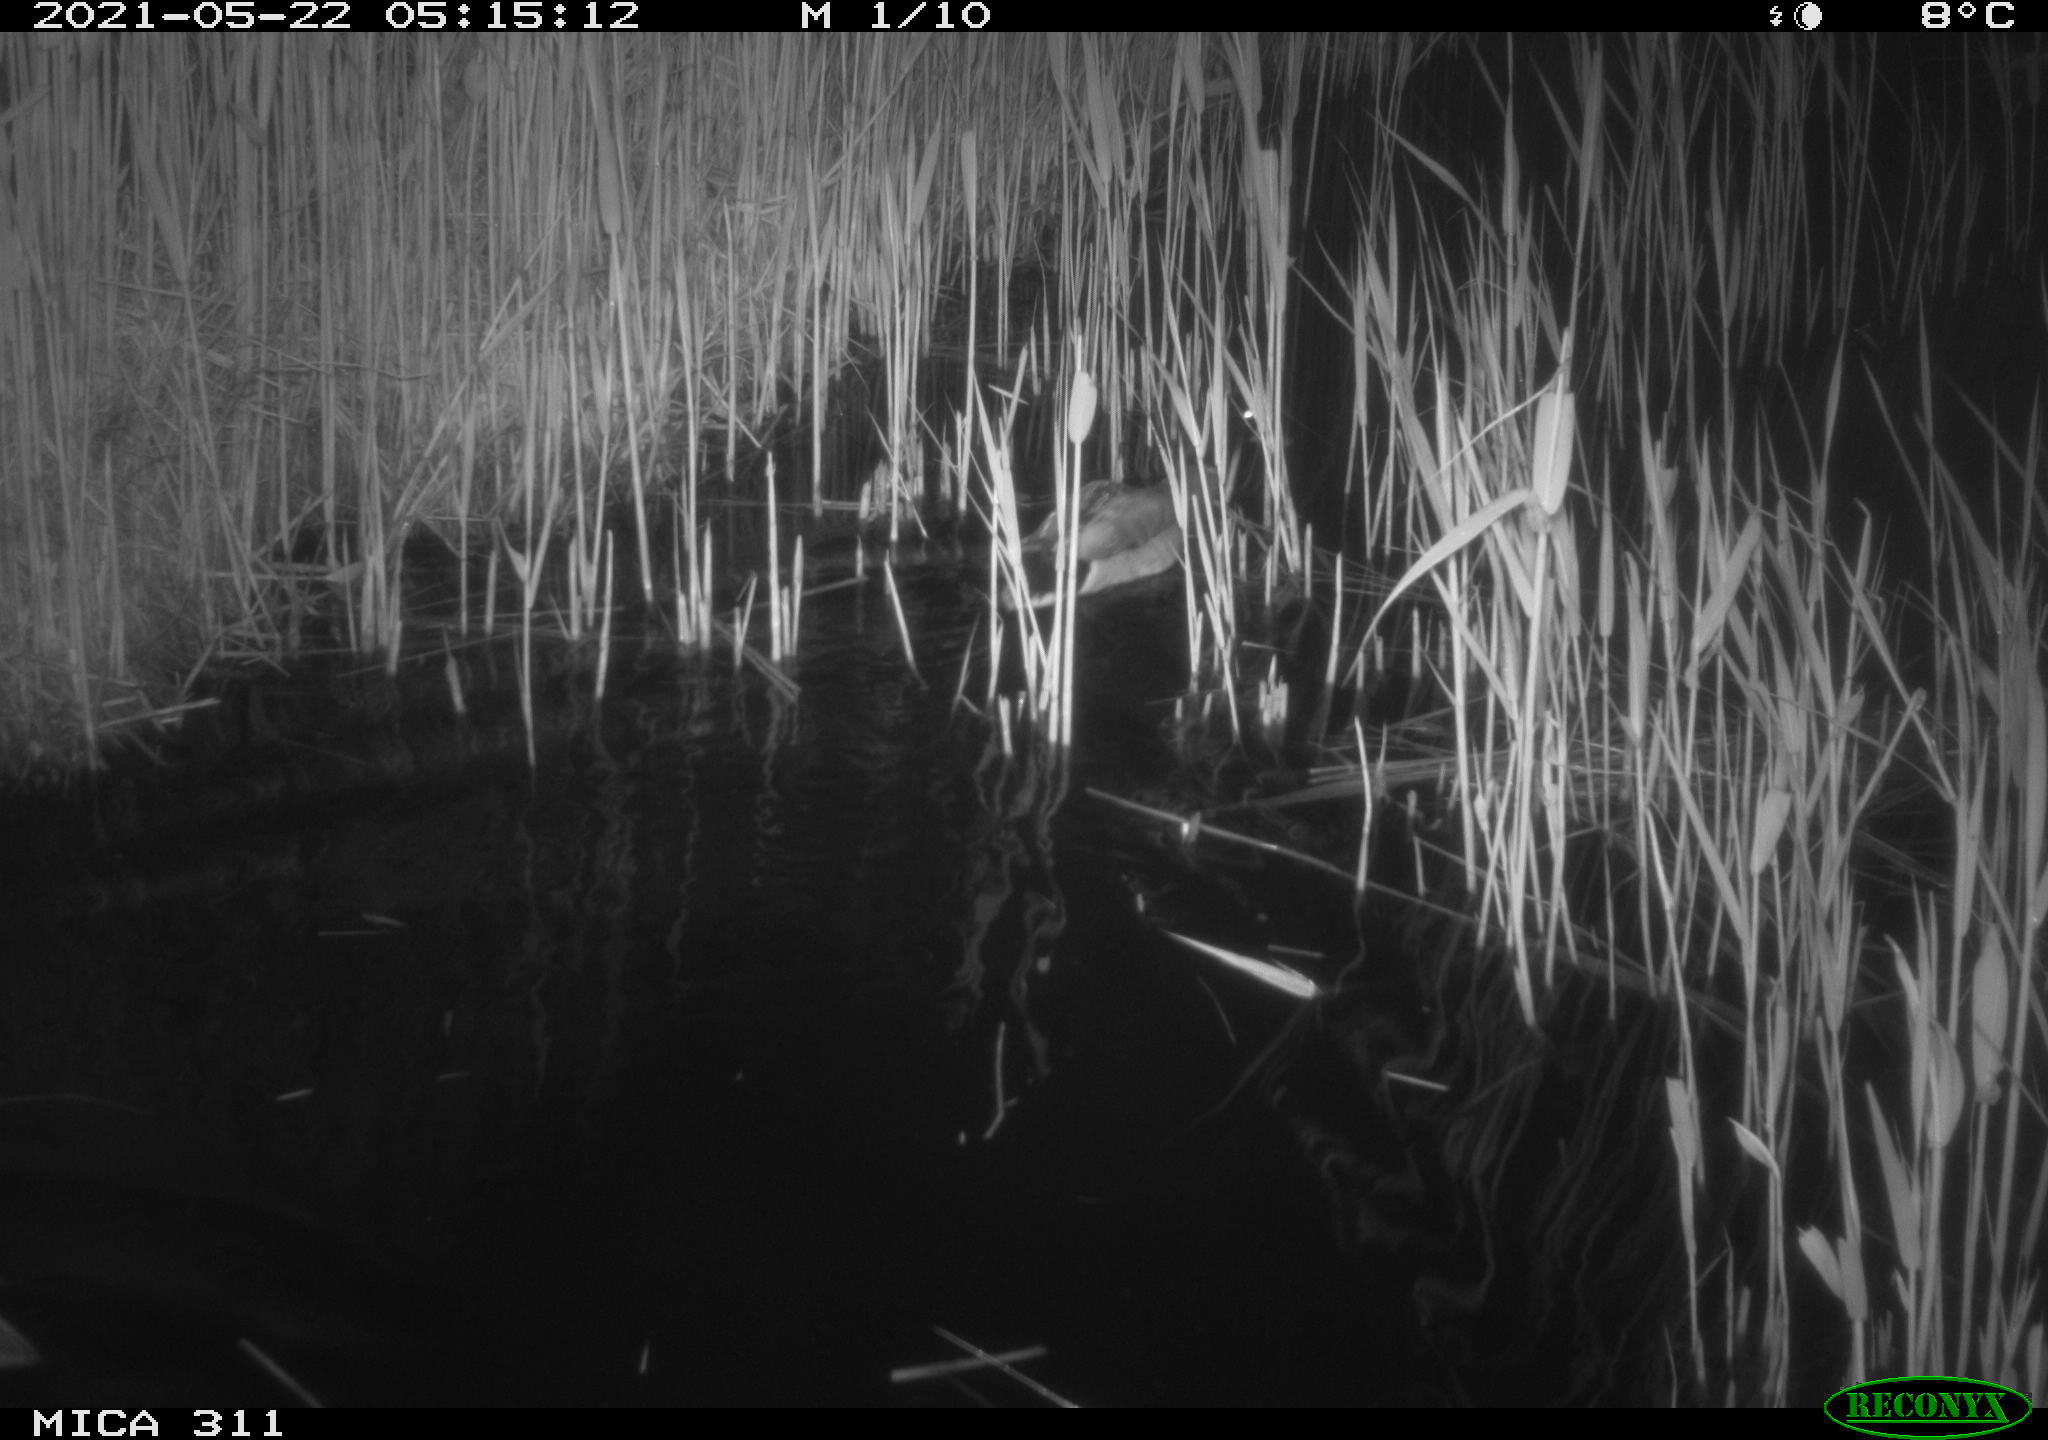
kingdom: Animalia
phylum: Chordata
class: Aves
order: Anseriformes
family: Anatidae
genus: Anas
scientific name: Anas platyrhynchos
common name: Mallard
